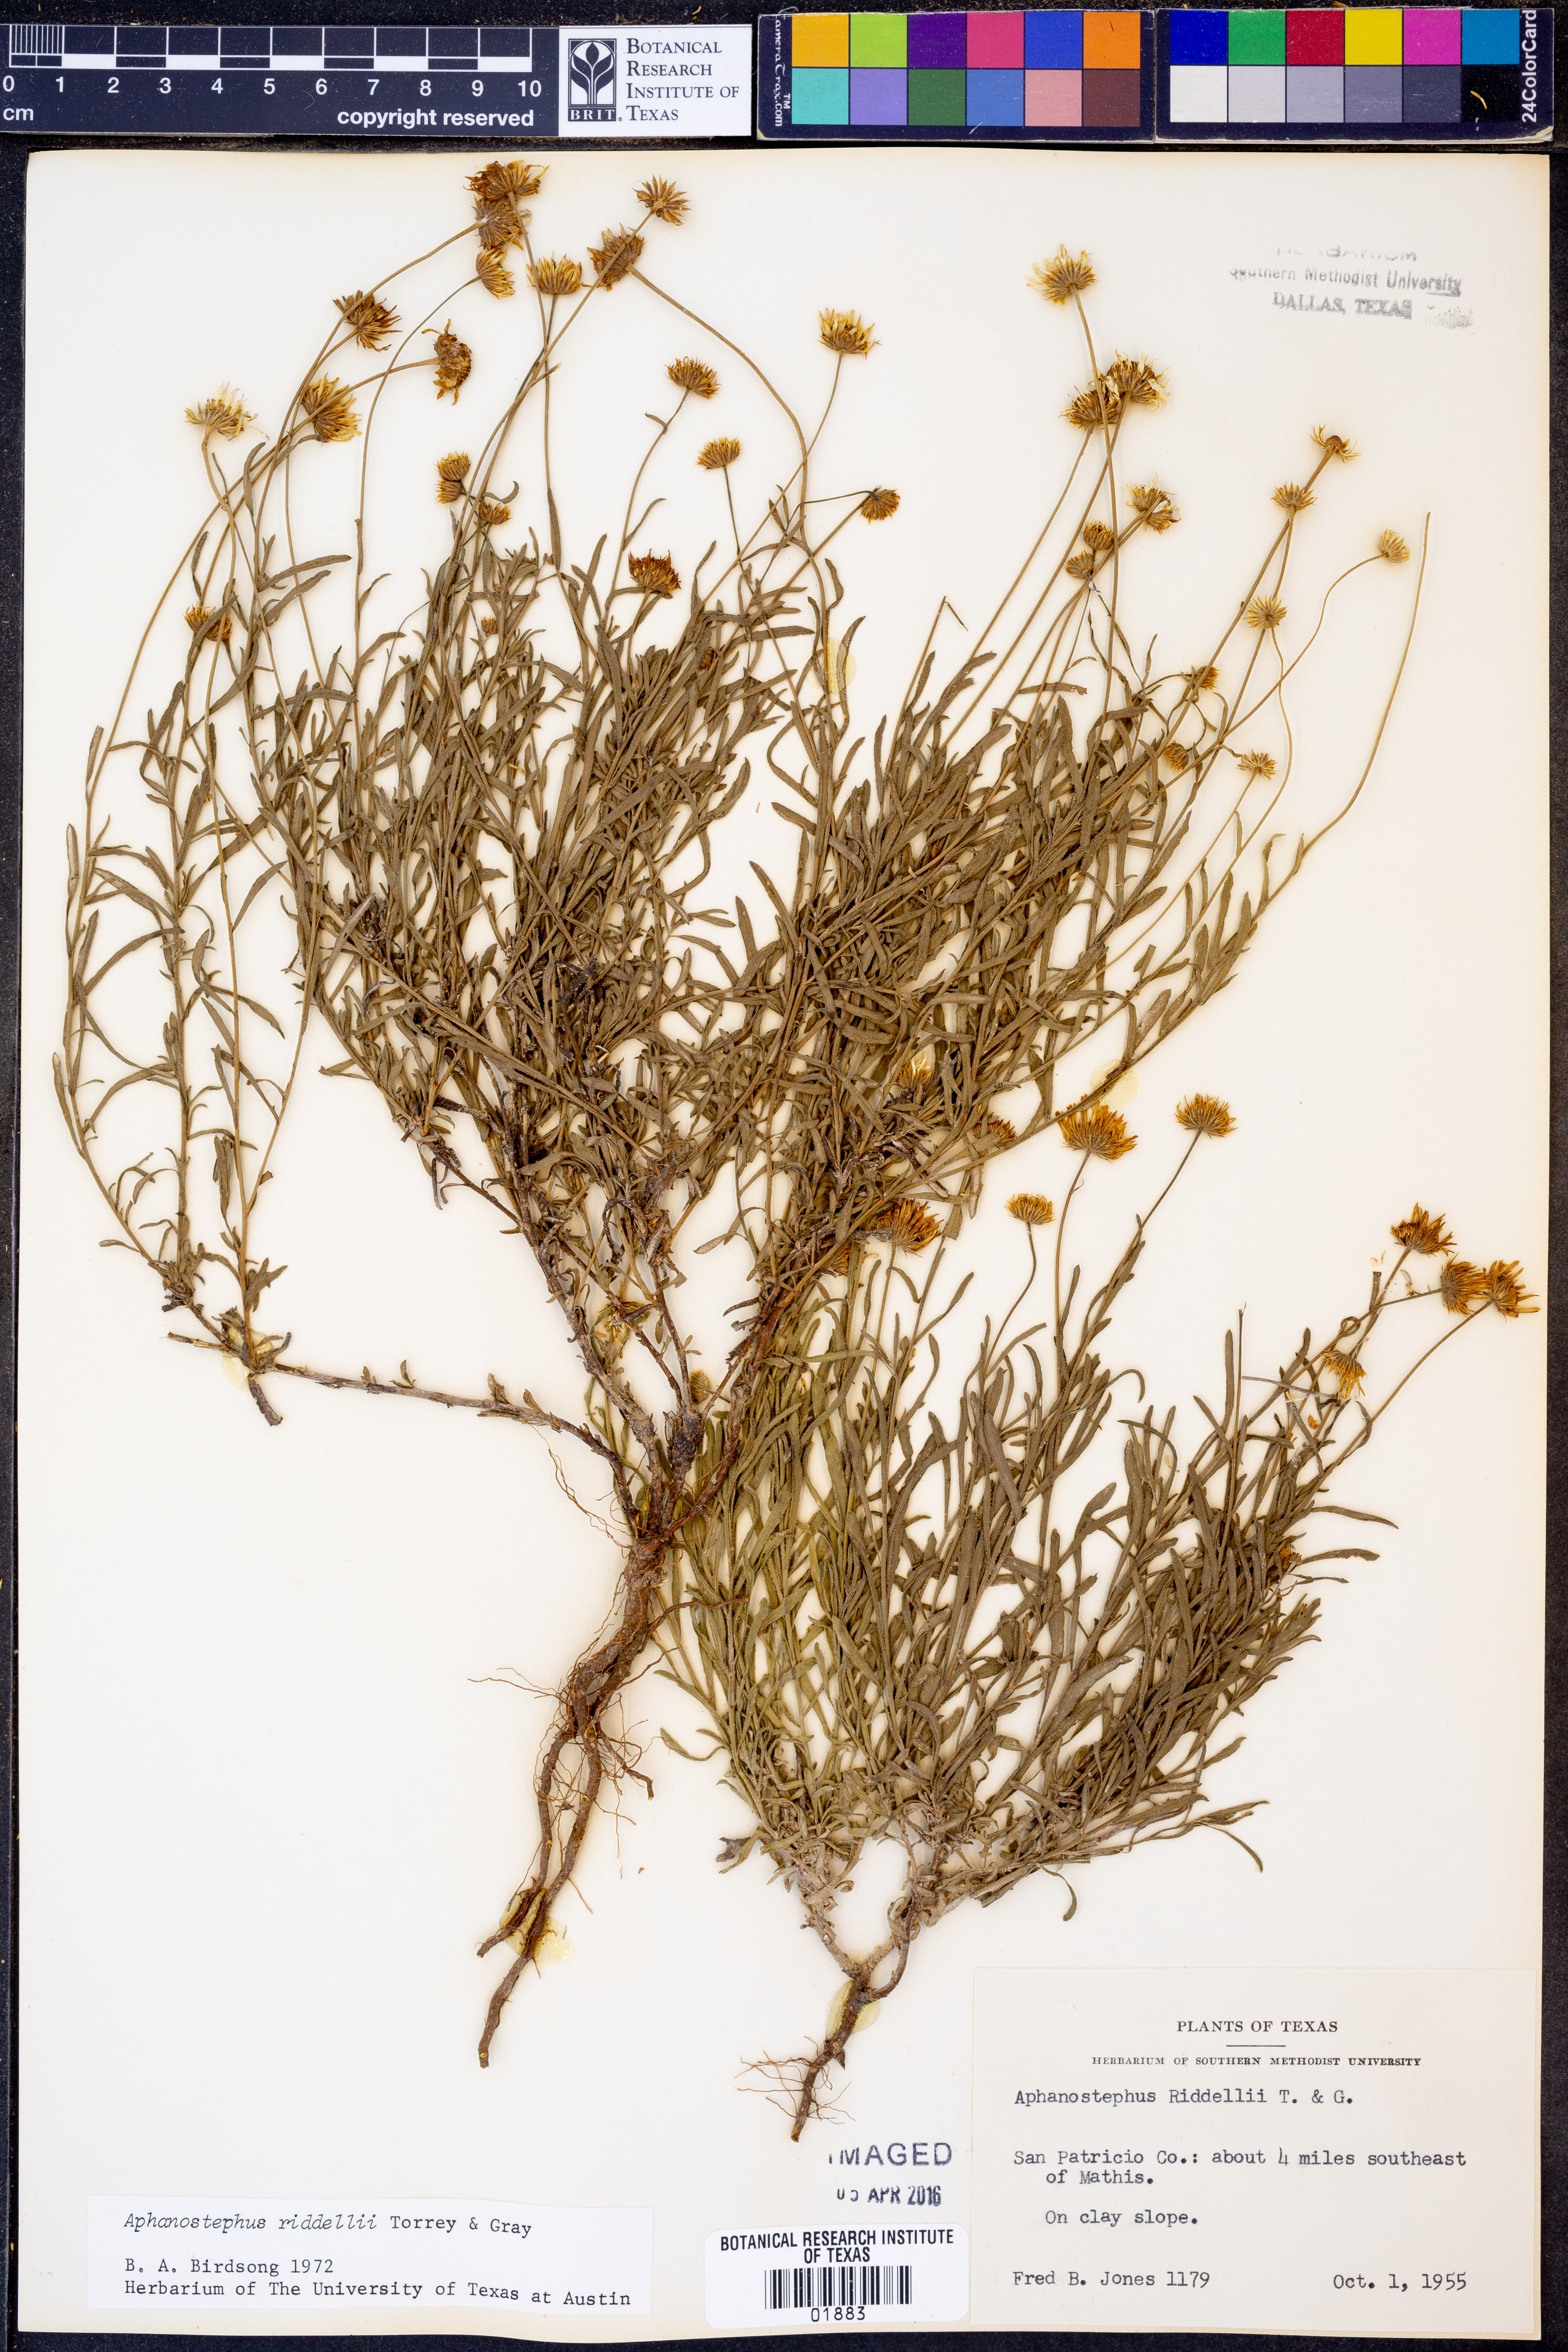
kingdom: Plantae
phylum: Tracheophyta
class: Magnoliopsida
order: Asterales
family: Asteraceae
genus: Aphanostephus
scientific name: Aphanostephus riddellii
